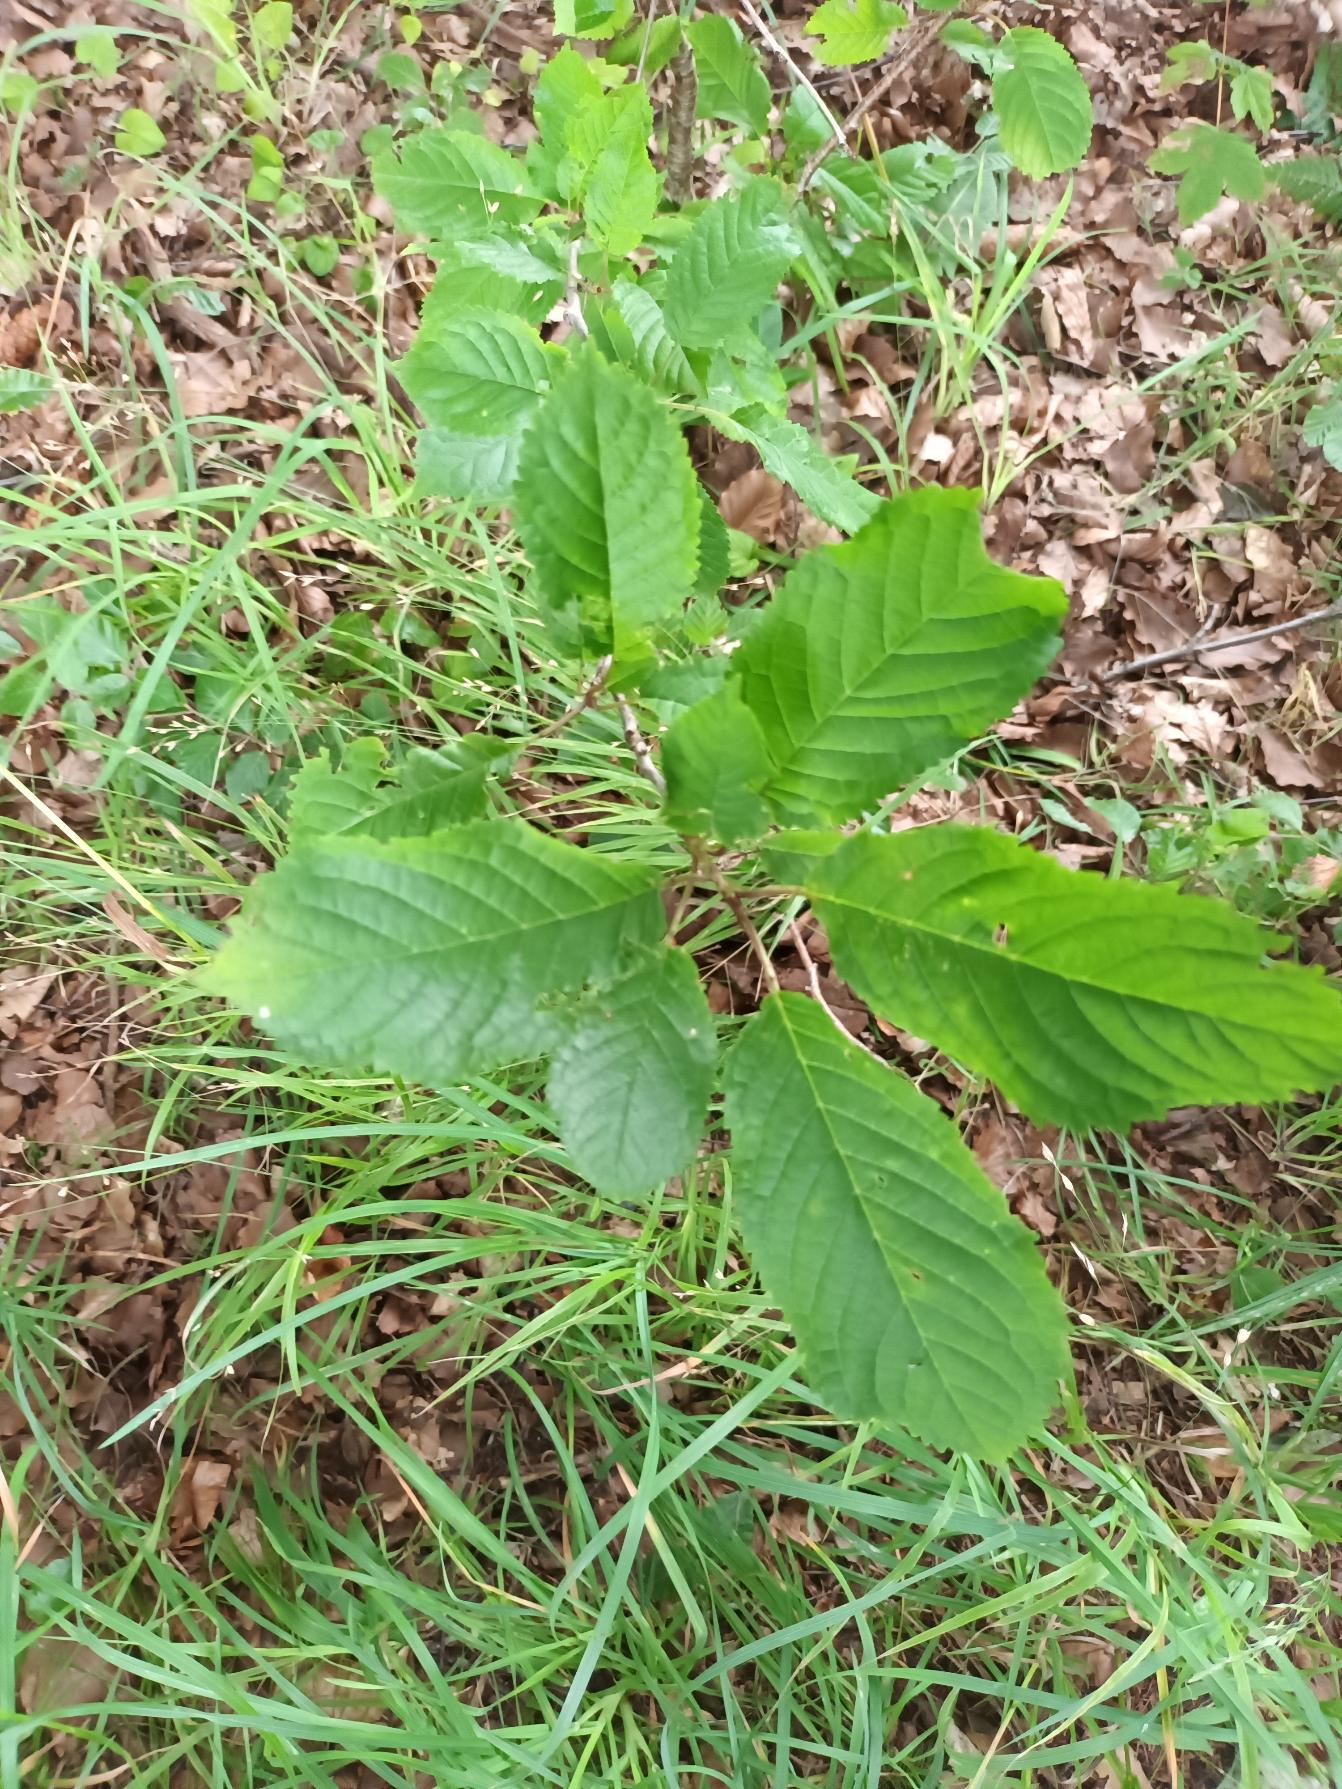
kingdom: Plantae
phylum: Tracheophyta
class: Magnoliopsida
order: Rosales
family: Rosaceae
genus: Prunus
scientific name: Prunus avium
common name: Fugle-kirsebær
